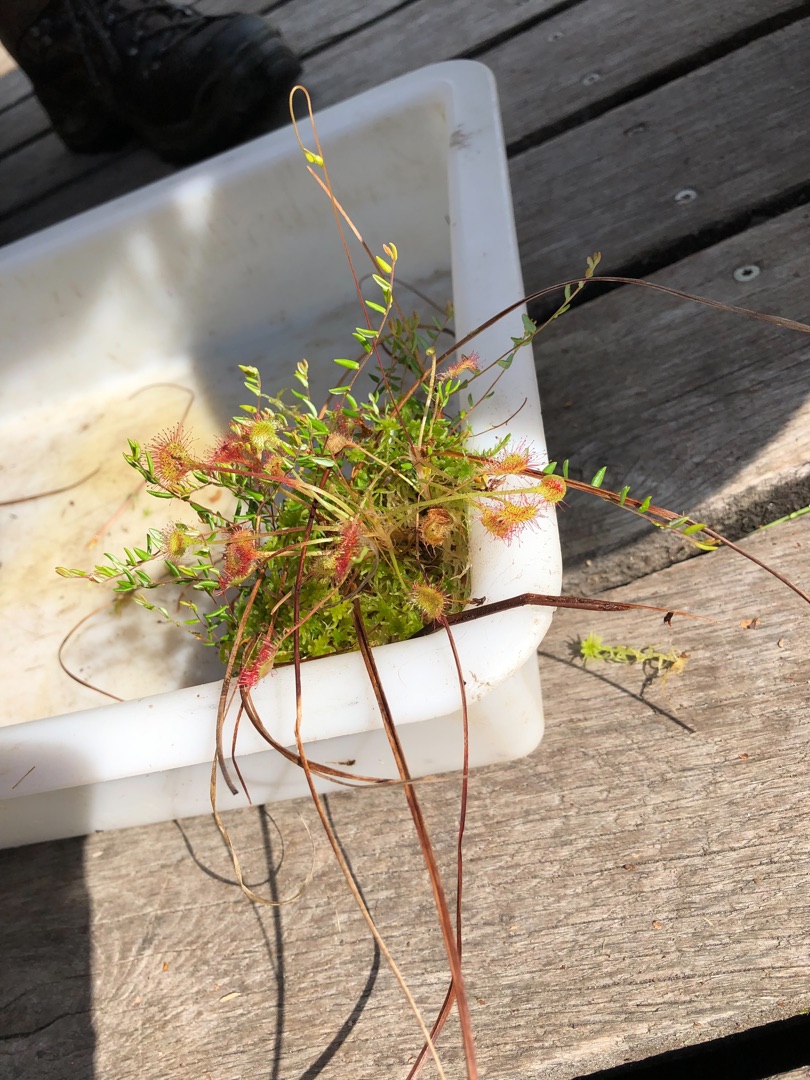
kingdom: Plantae
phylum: Tracheophyta
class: Magnoliopsida
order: Caryophyllales
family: Droseraceae
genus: Drosera
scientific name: Drosera rotundifolia
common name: Rundbladet soldug
